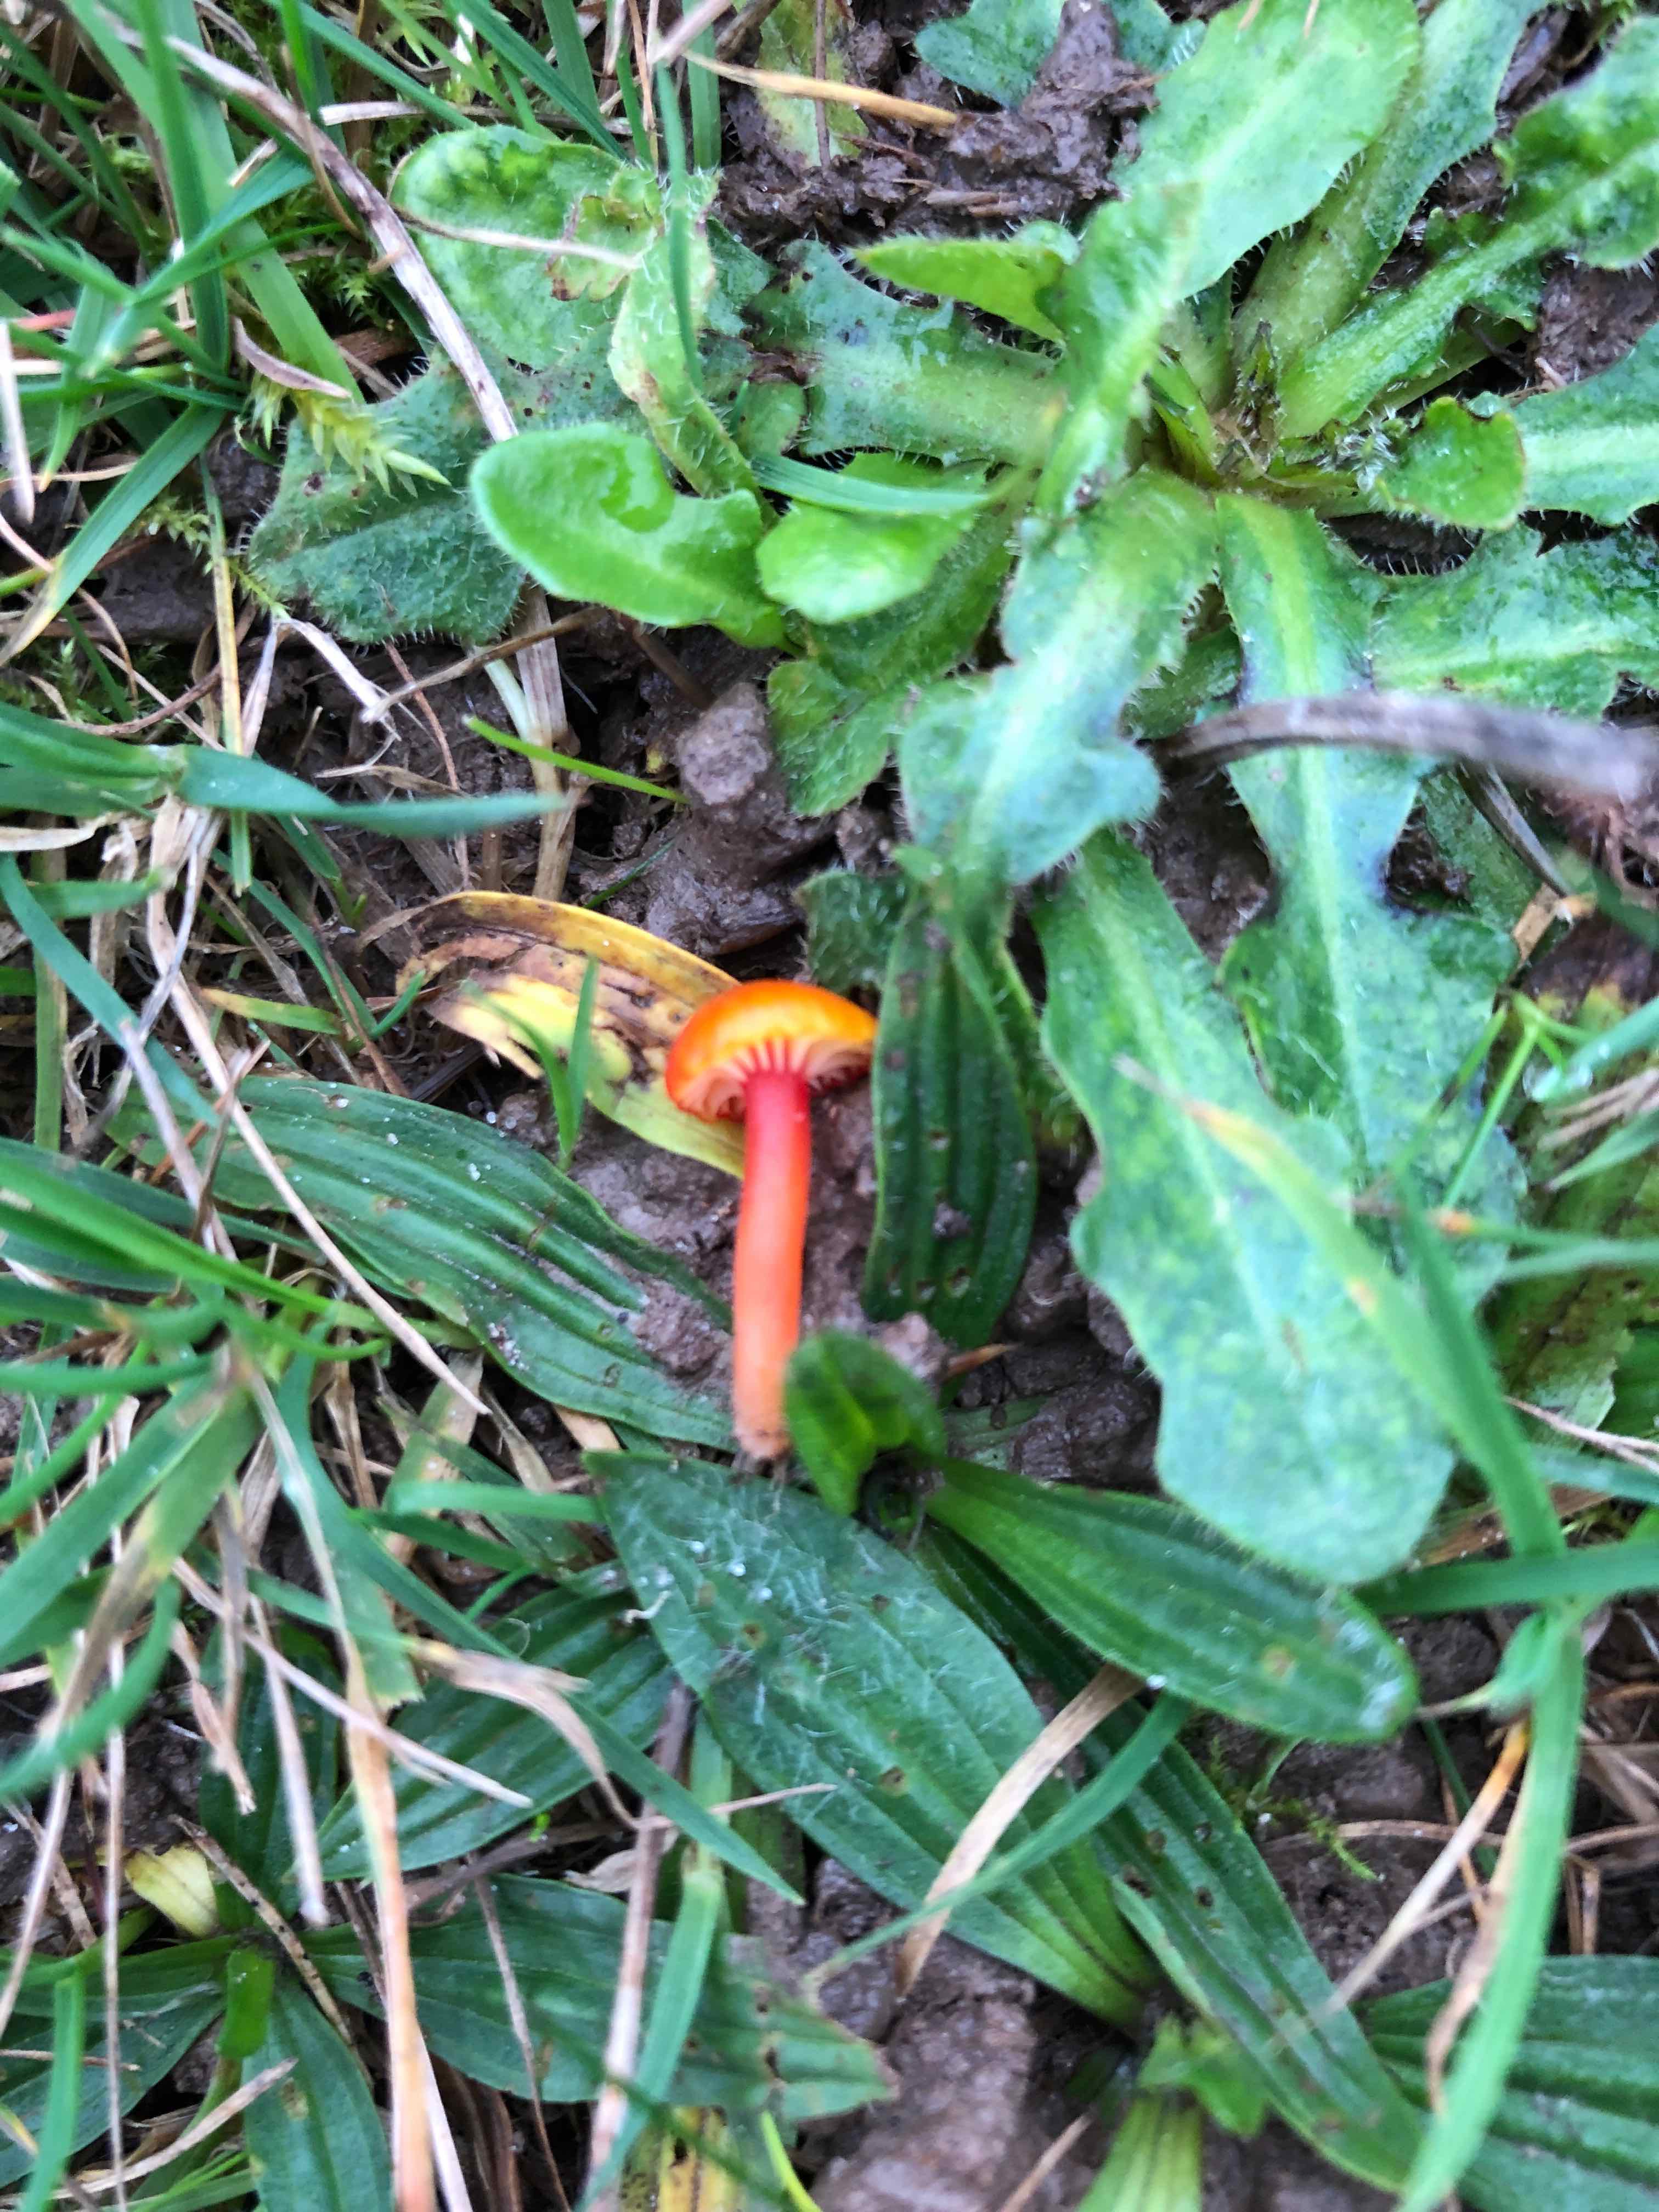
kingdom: Fungi
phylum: Basidiomycota
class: Agaricomycetes
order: Agaricales
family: Hygrophoraceae
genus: Hygrocybe
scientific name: Hygrocybe insipida
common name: liden vokshat
